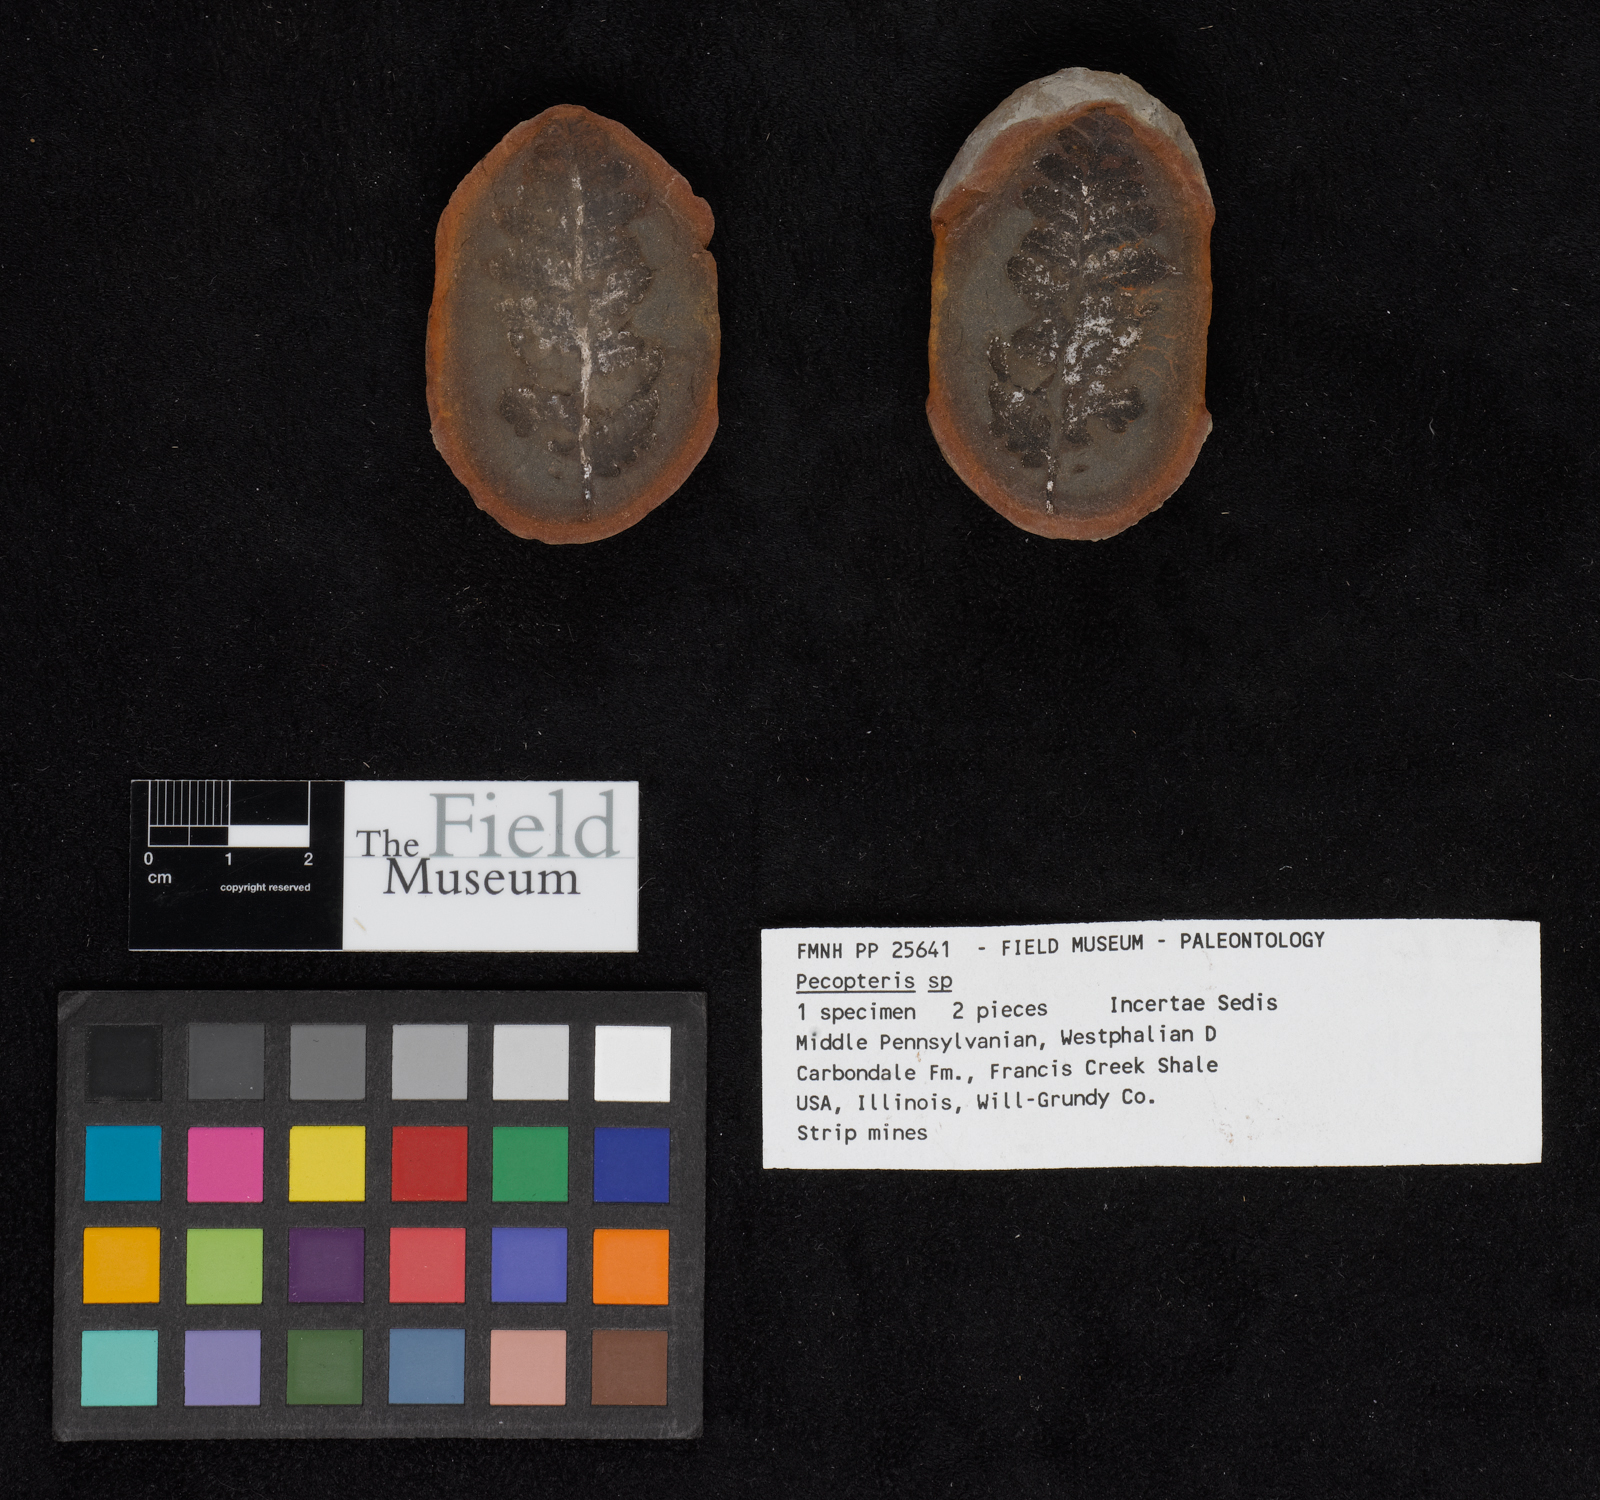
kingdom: Plantae
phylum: Tracheophyta
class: Polypodiopsida
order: Marattiales
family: Asterothecaceae
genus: Pecopteris
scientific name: Pecopteris
